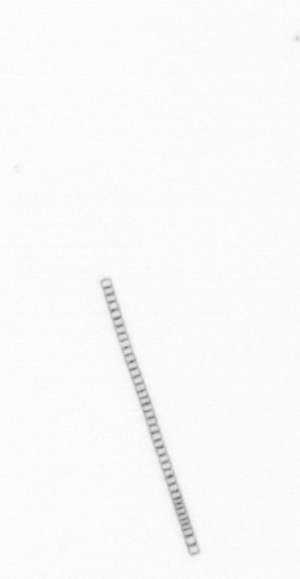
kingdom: Chromista
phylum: Ochrophyta
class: Bacillariophyceae
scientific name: Bacillariophyceae
